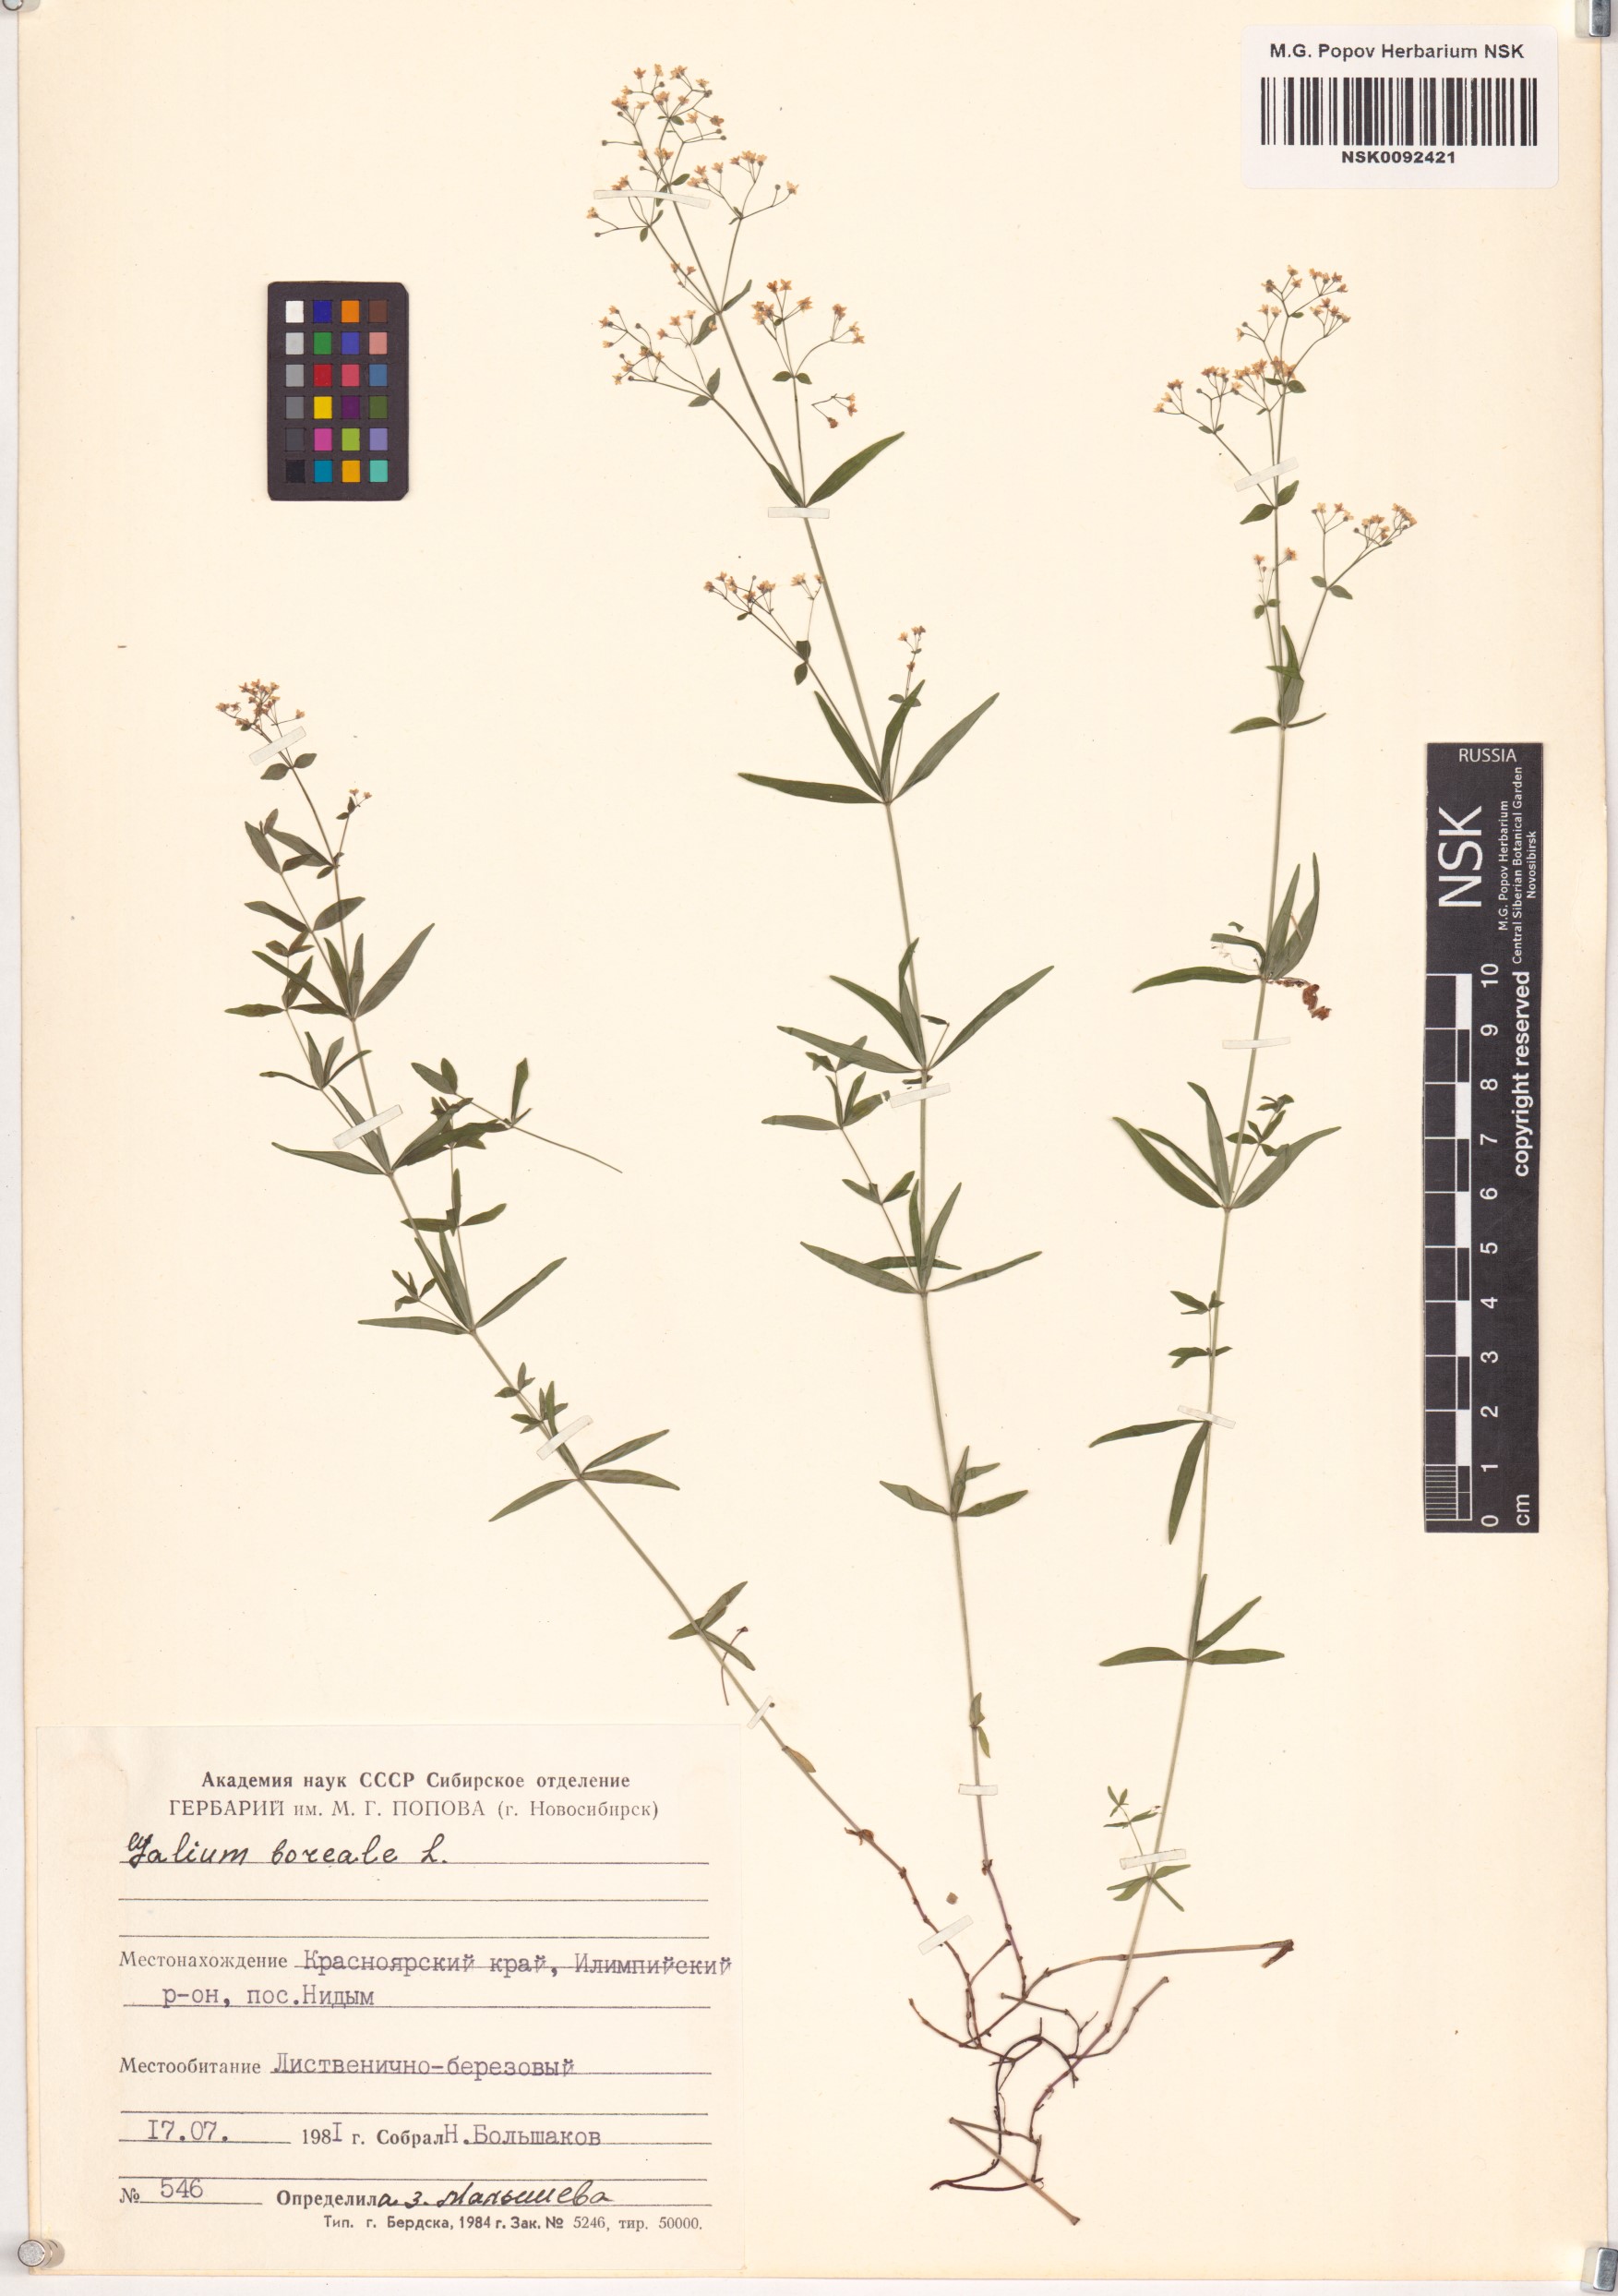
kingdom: Plantae
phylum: Tracheophyta
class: Magnoliopsida
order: Gentianales
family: Rubiaceae
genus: Galium
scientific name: Galium boreale
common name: Northern bedstraw
